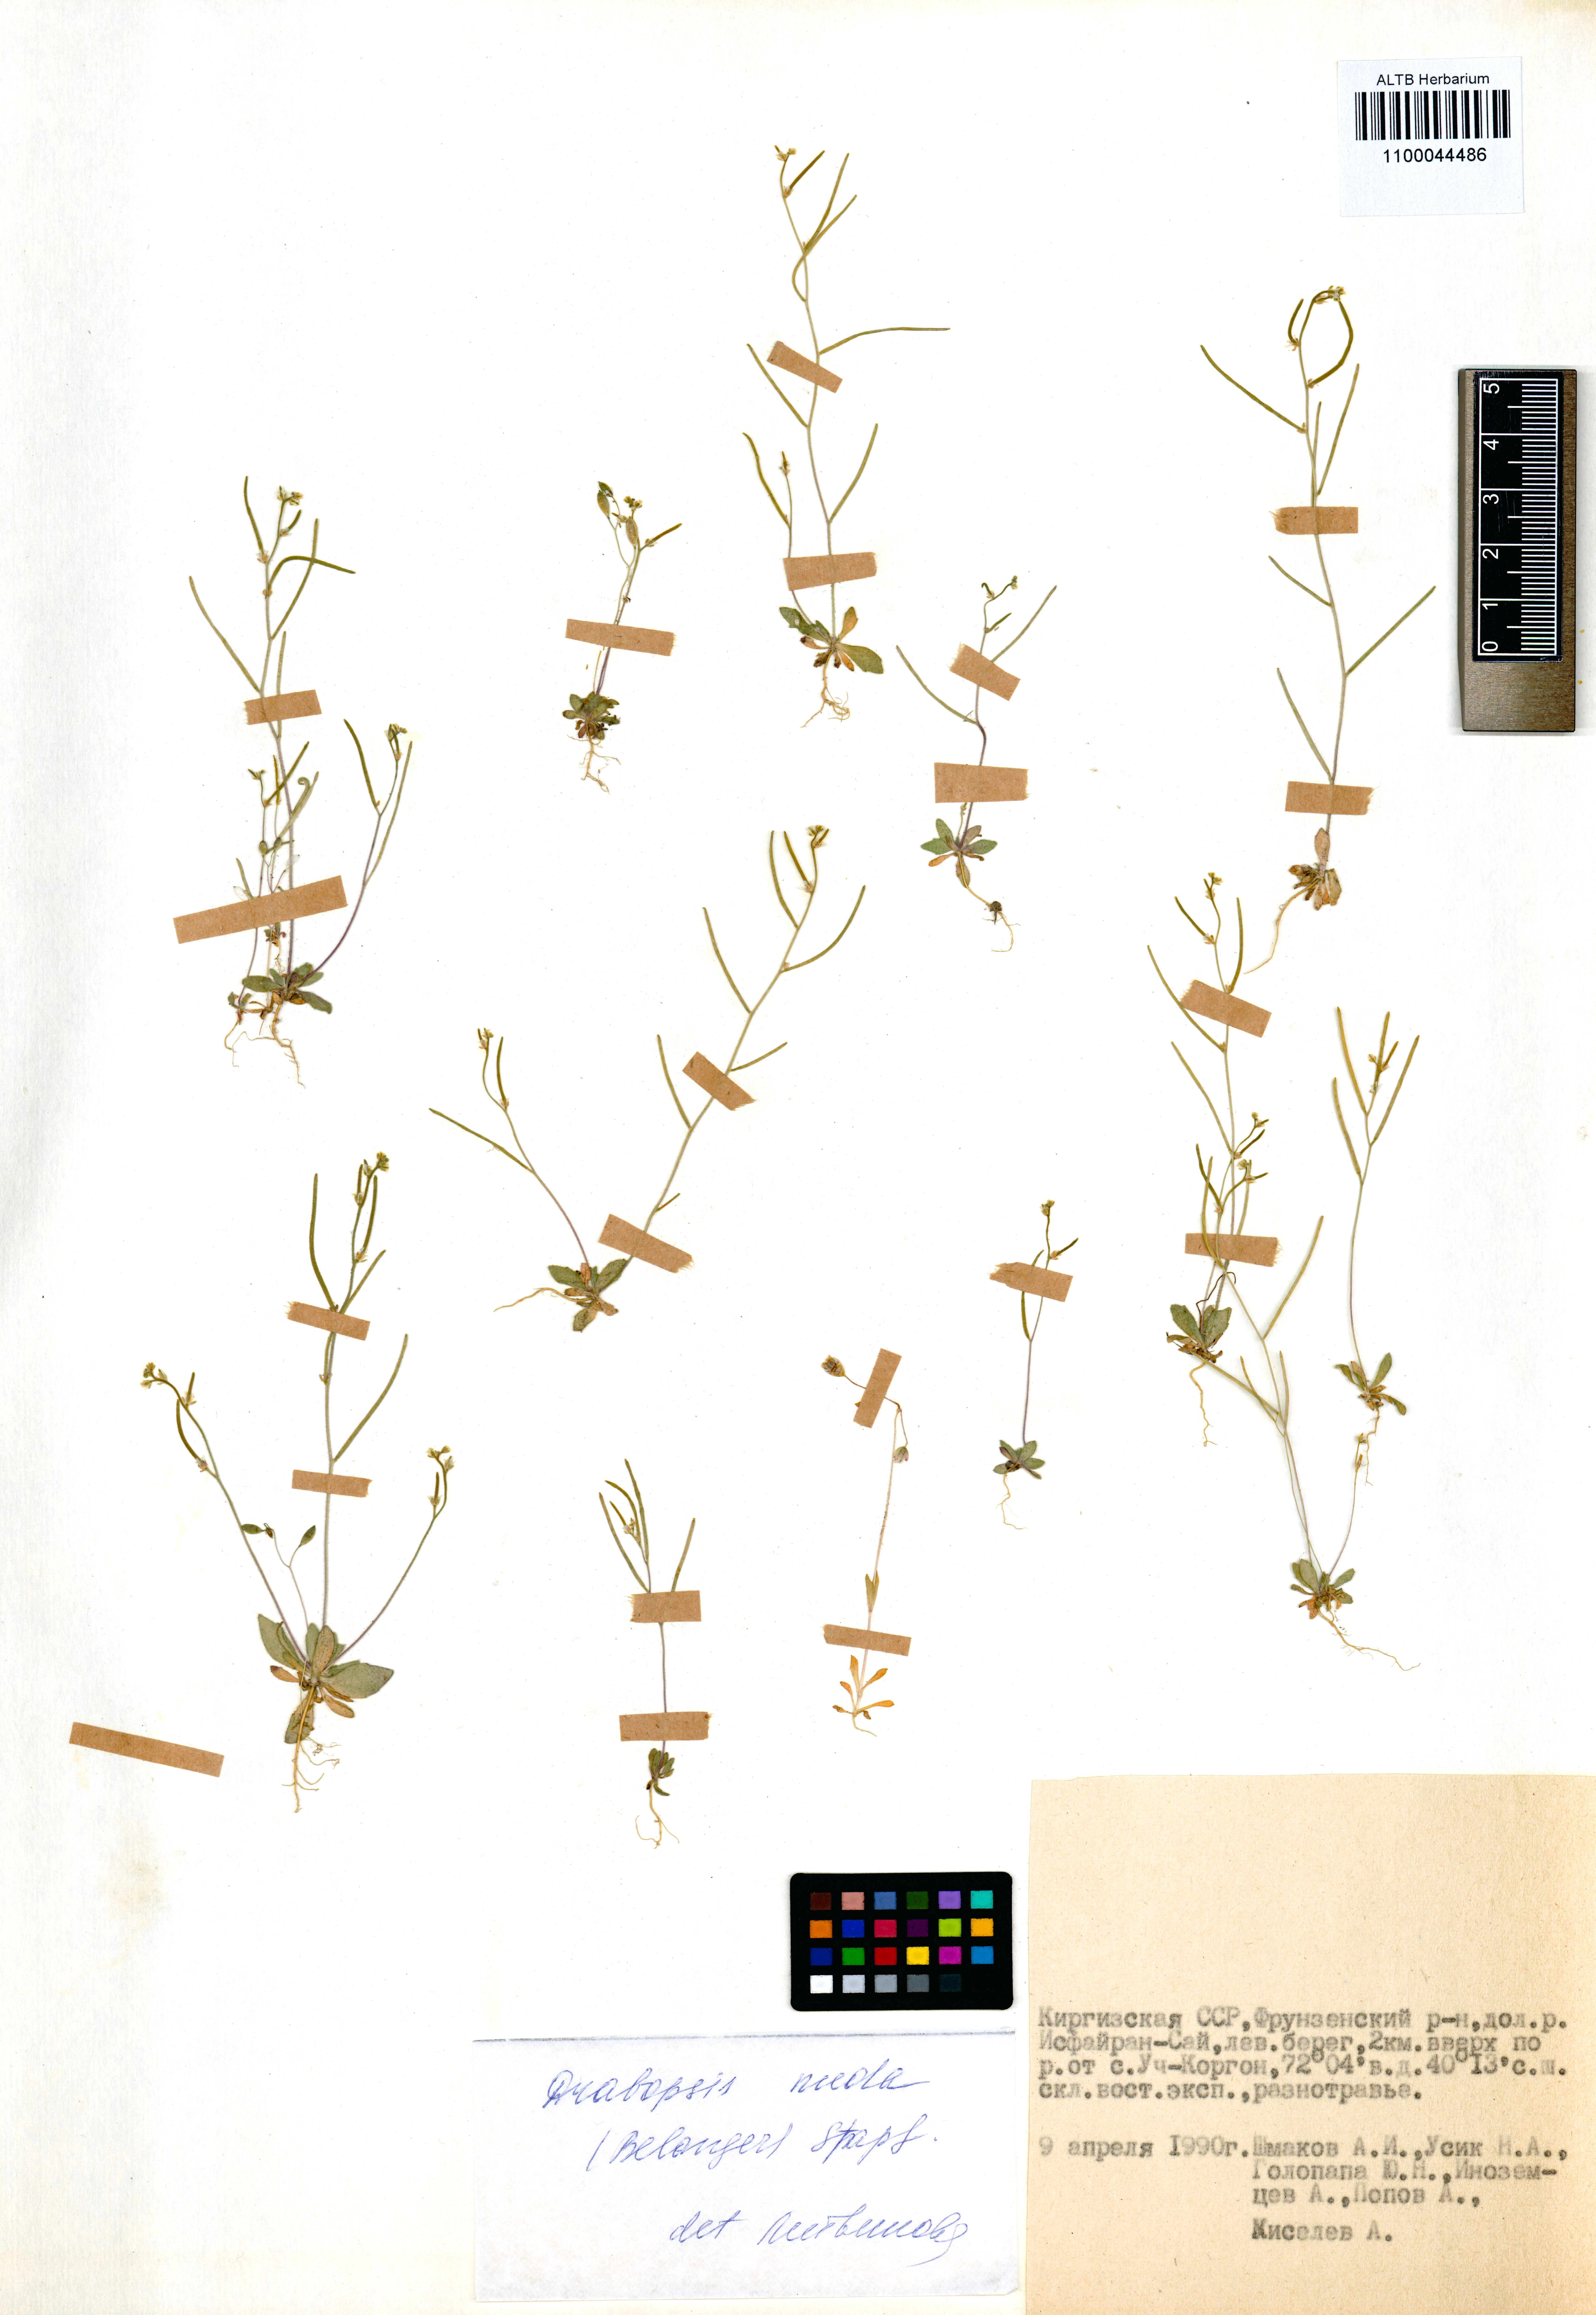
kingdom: Plantae
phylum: Tracheophyta
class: Magnoliopsida
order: Brassicales
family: Brassicaceae
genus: Draba
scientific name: Draba nuda
